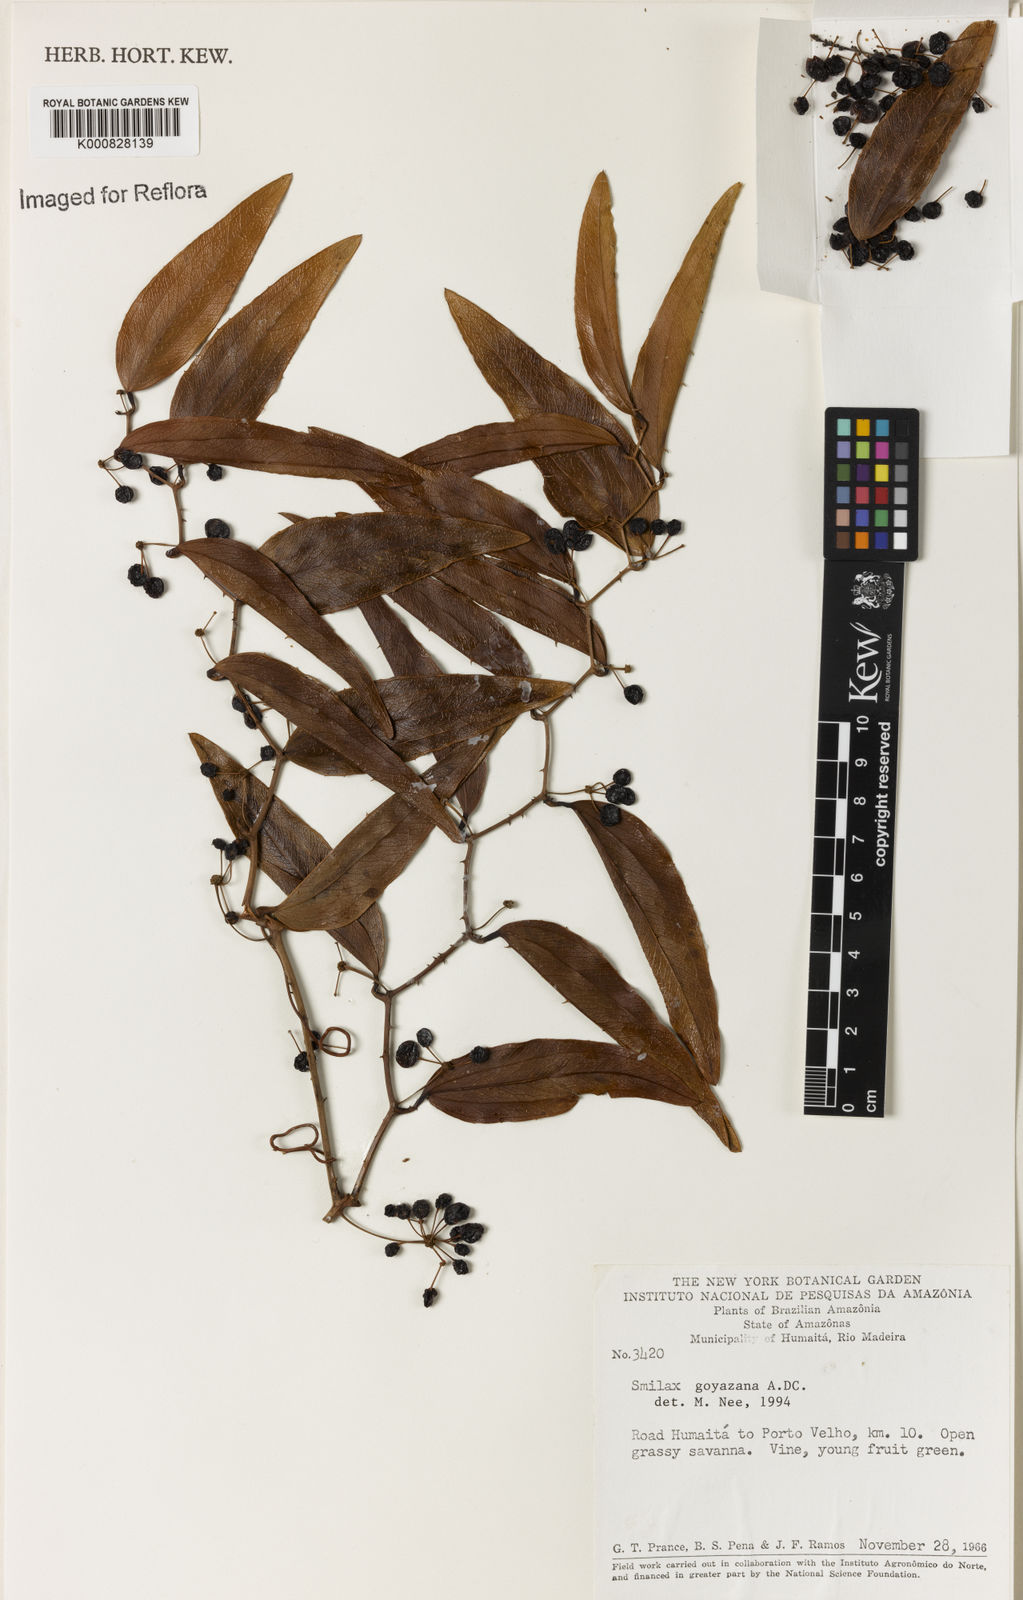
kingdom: Plantae
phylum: Tracheophyta
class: Liliopsida
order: Liliales
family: Smilacaceae
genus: Smilax
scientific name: Smilax goyazana
